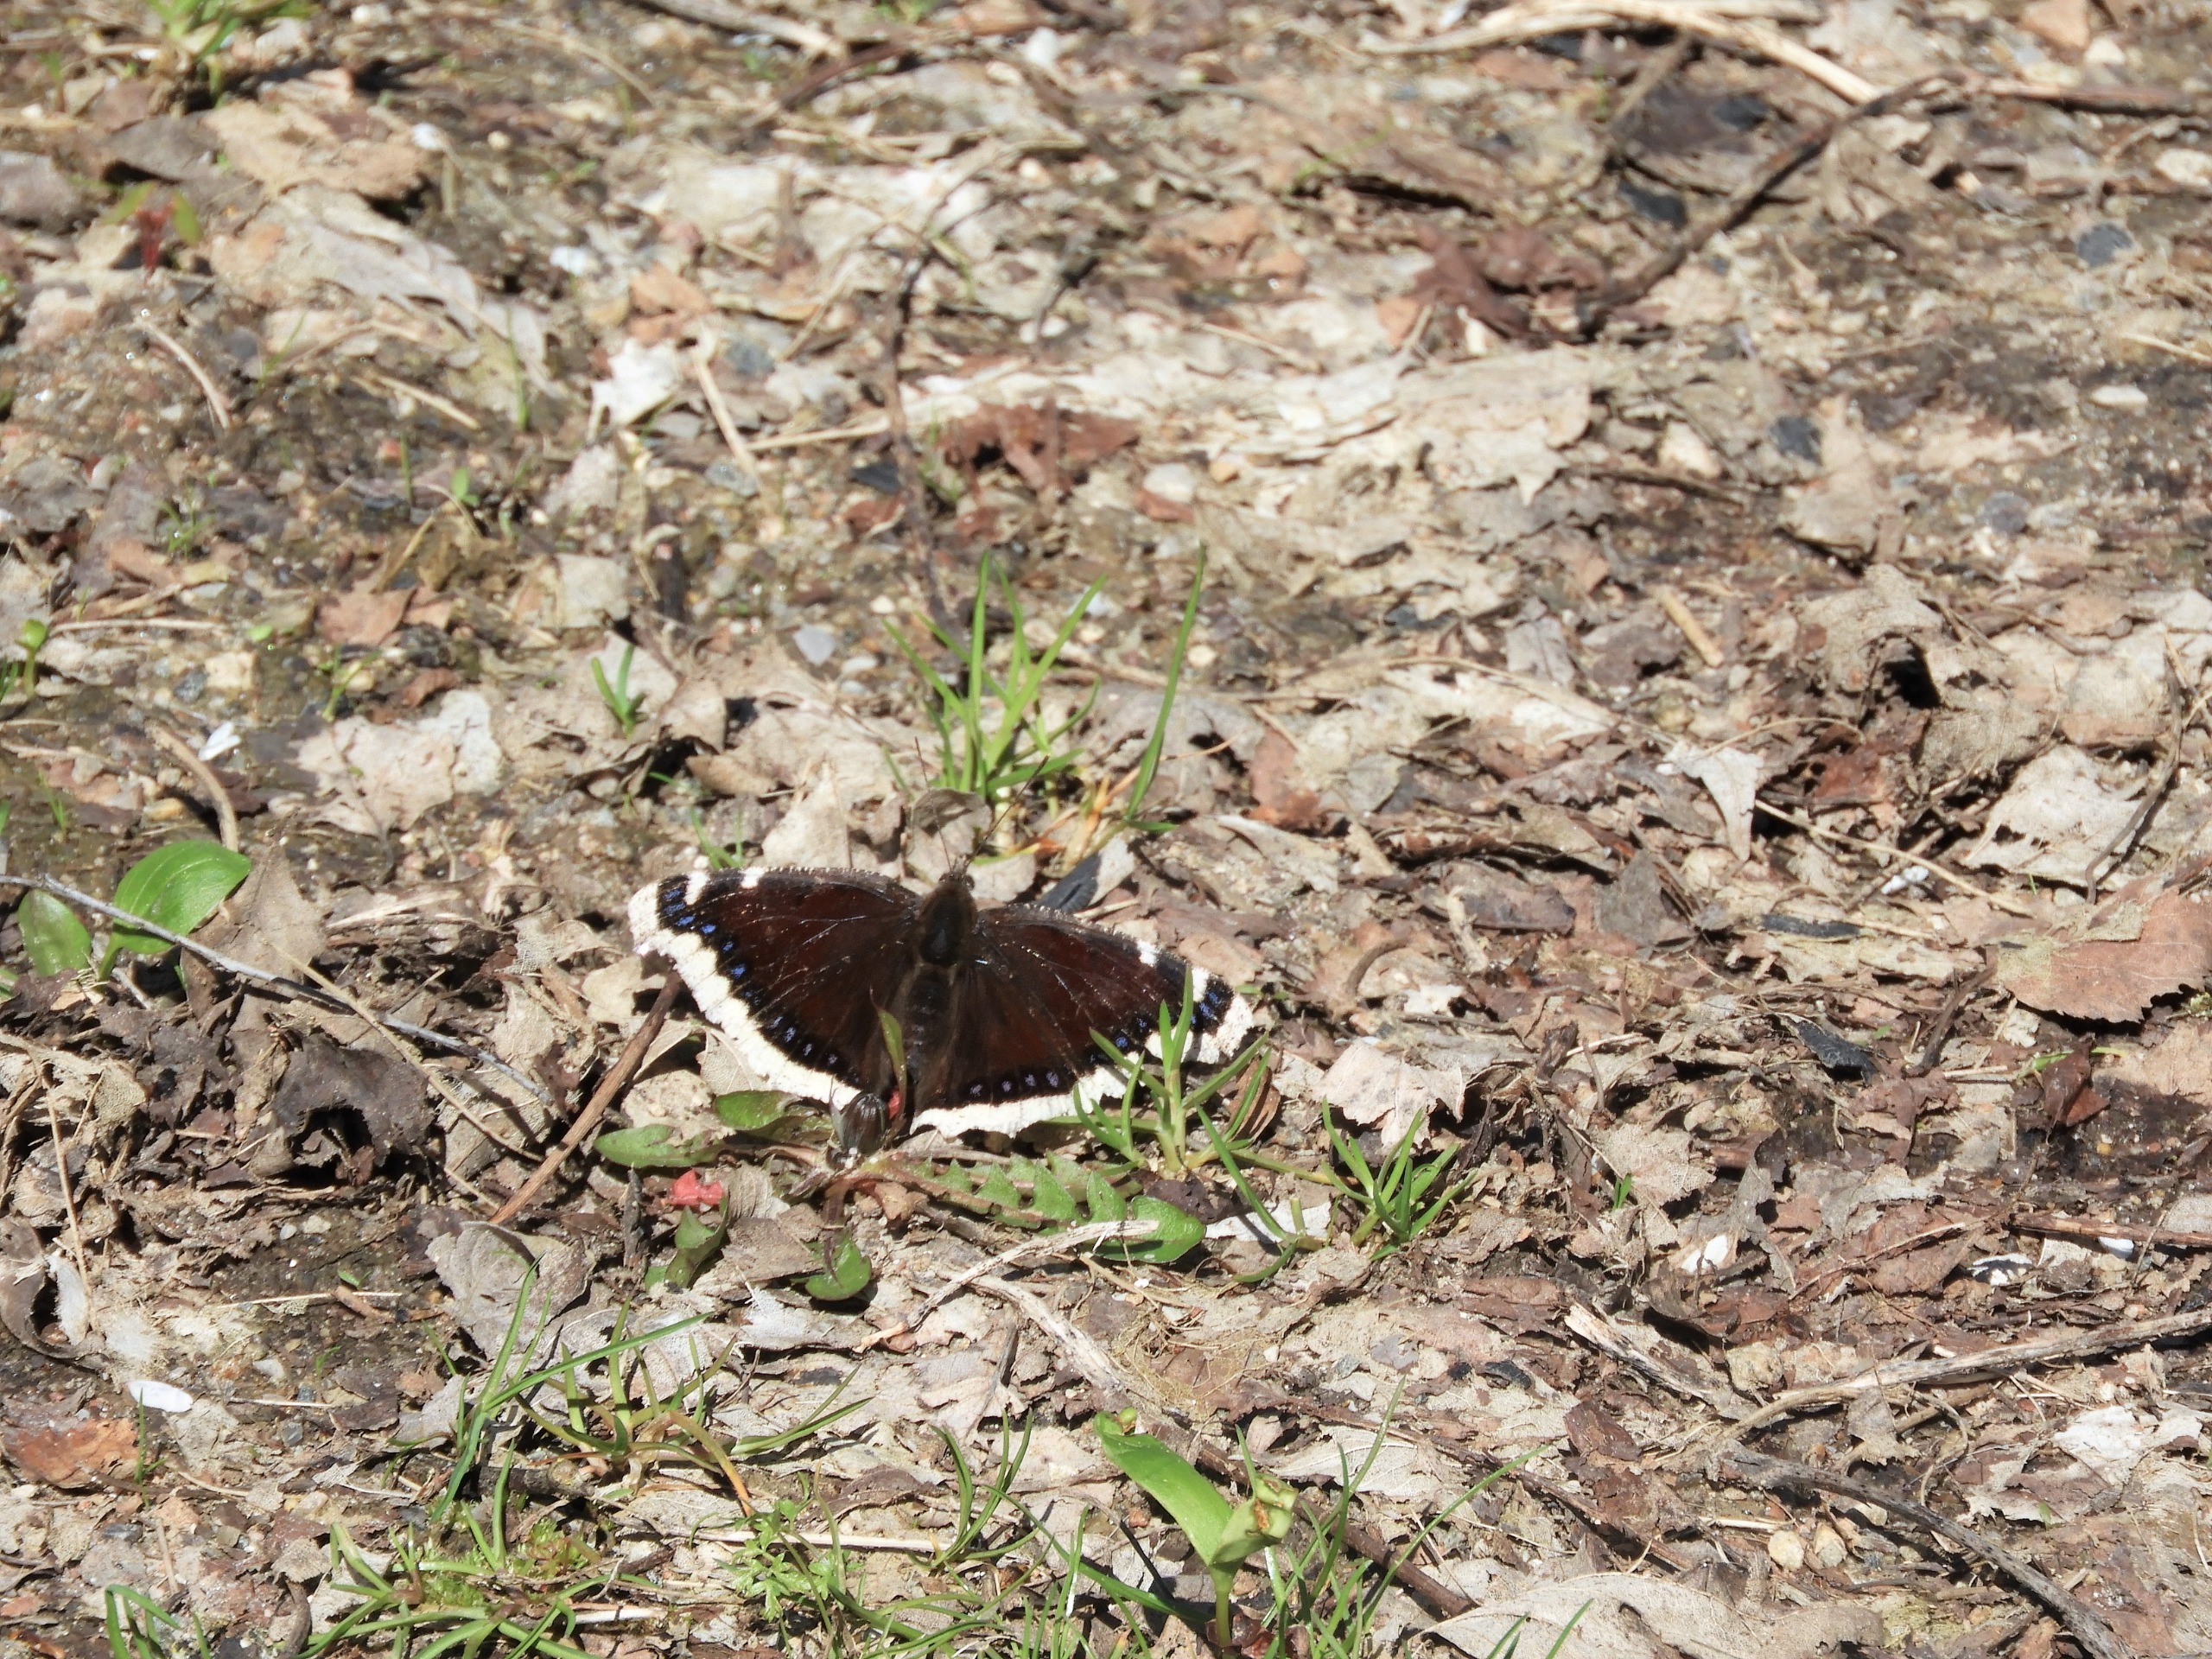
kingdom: Animalia
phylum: Arthropoda
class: Insecta
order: Lepidoptera
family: Nymphalidae
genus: Nymphalis
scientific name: Nymphalis antiopa
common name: Sørgekåbe
